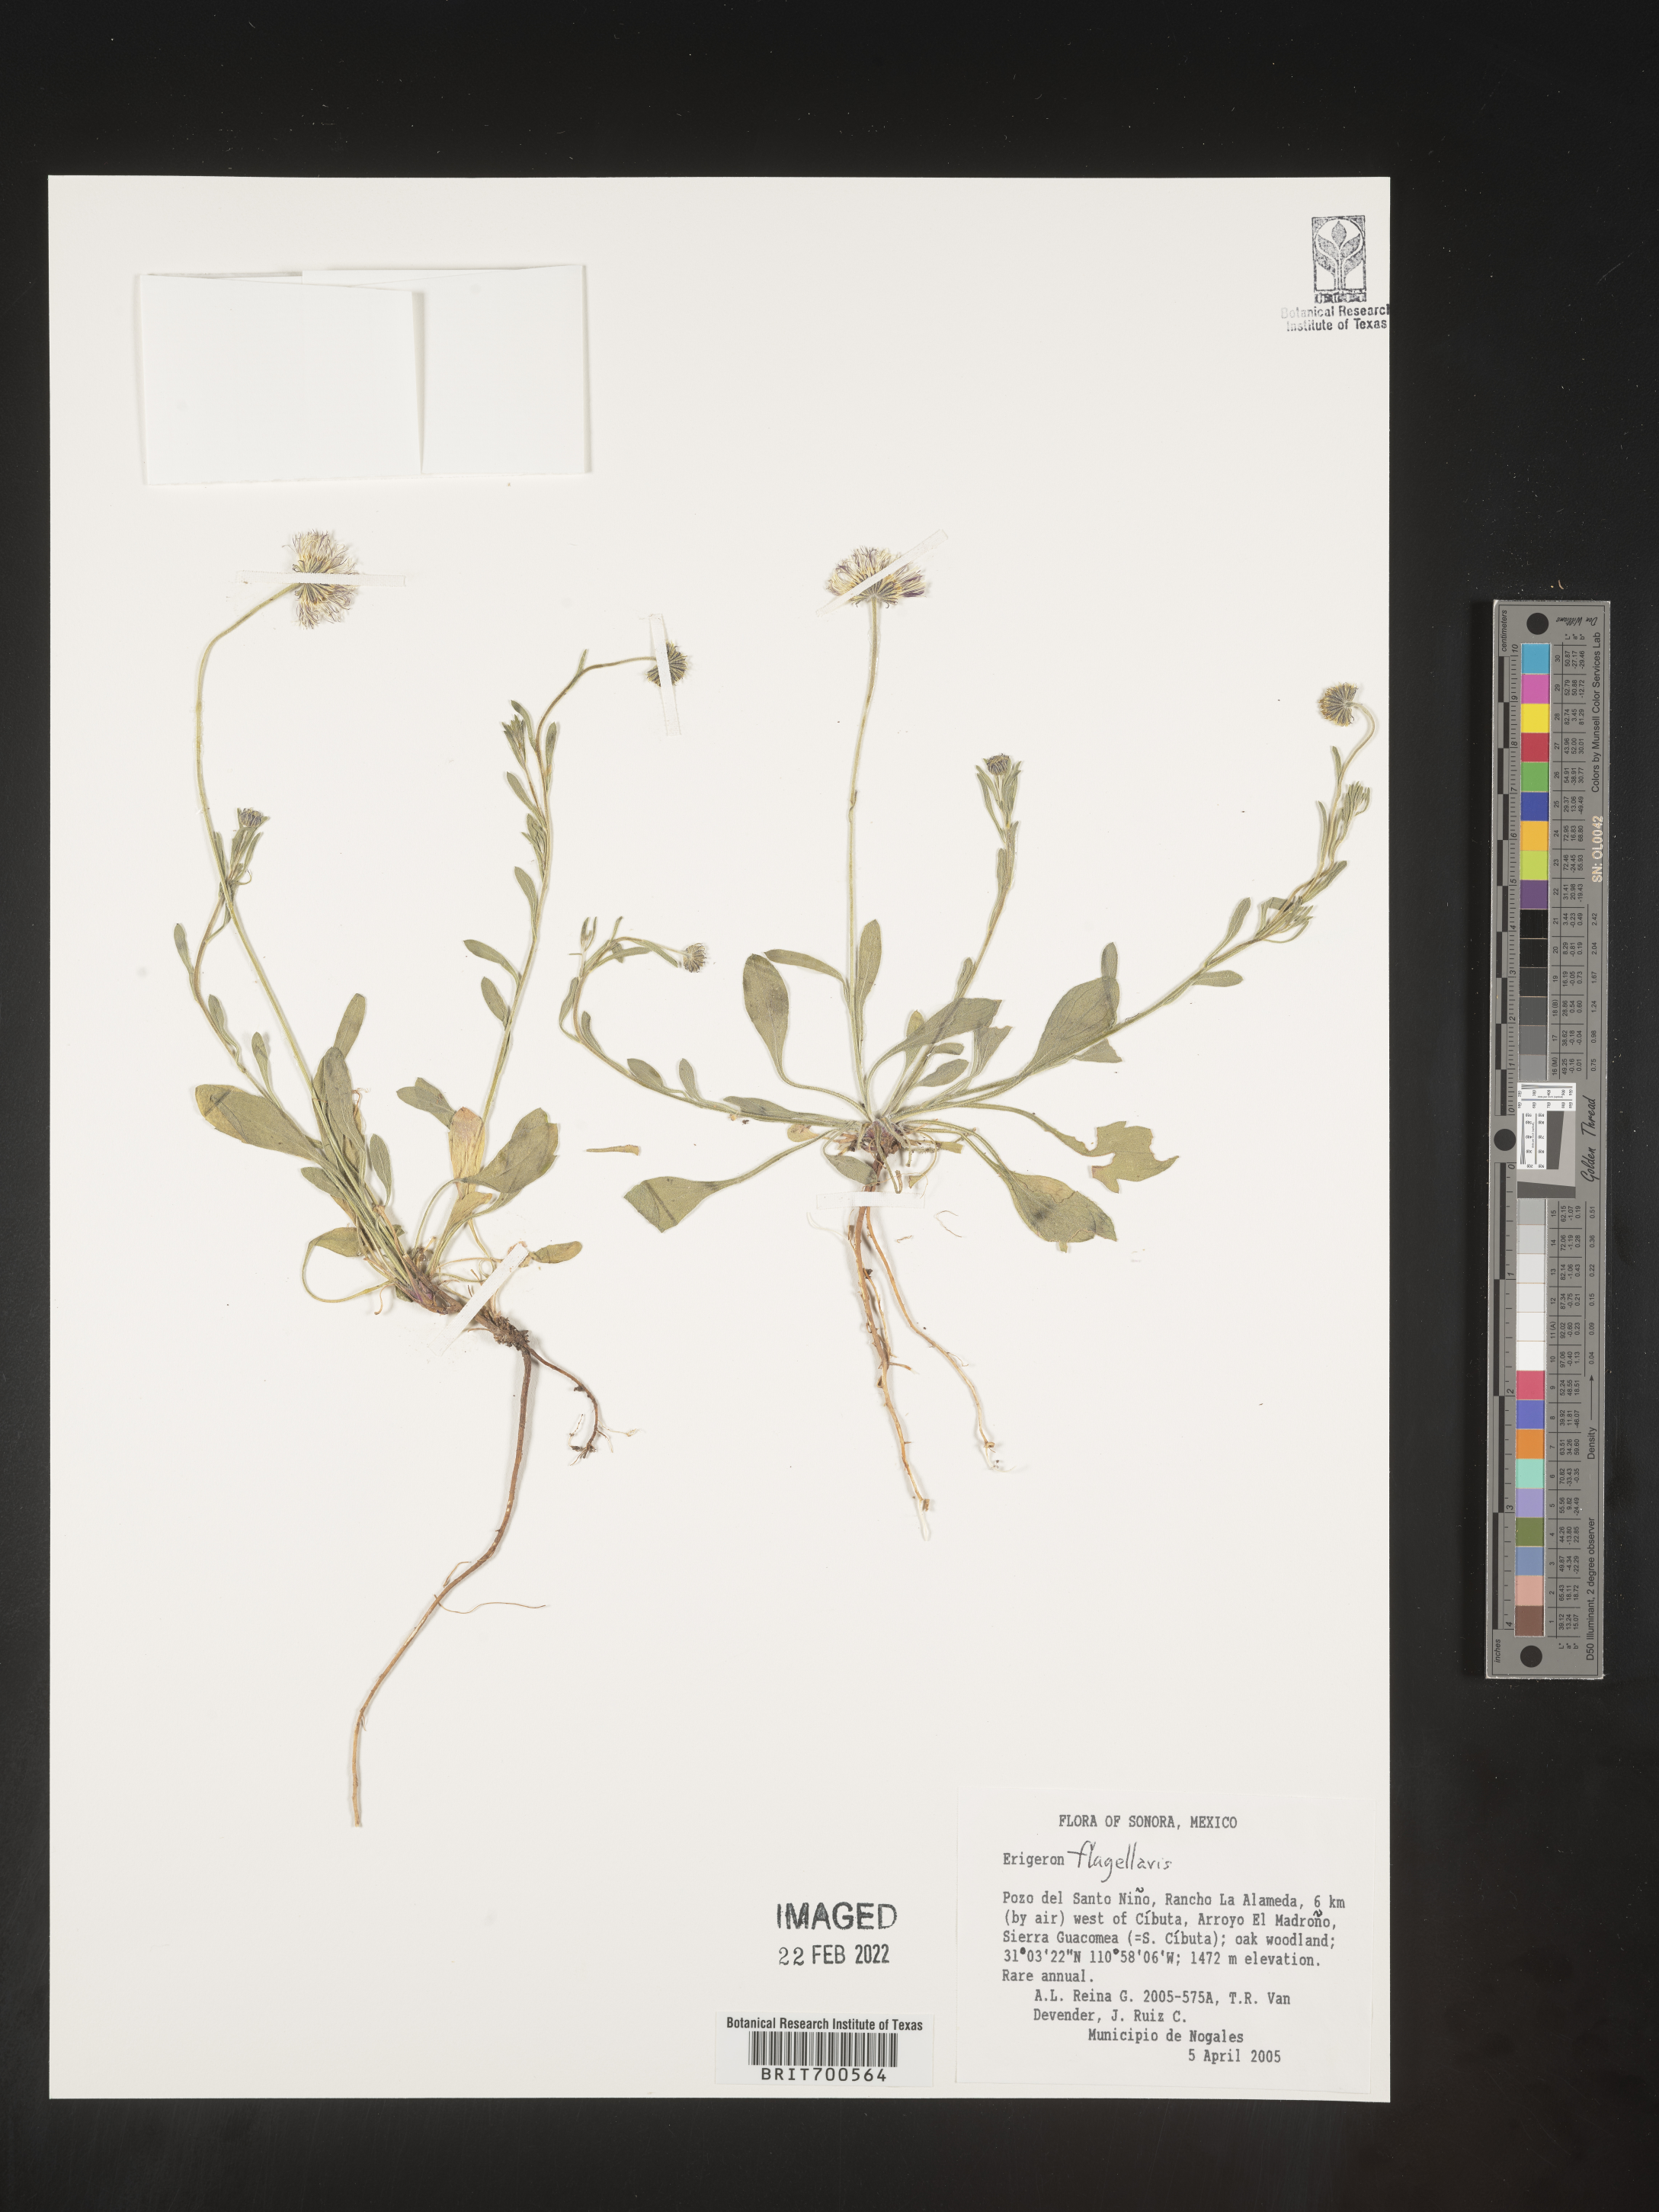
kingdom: Plantae
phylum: Tracheophyta
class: Magnoliopsida
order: Asterales
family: Asteraceae
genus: Erigeron
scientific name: Erigeron flagellaris
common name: Running fleabane
